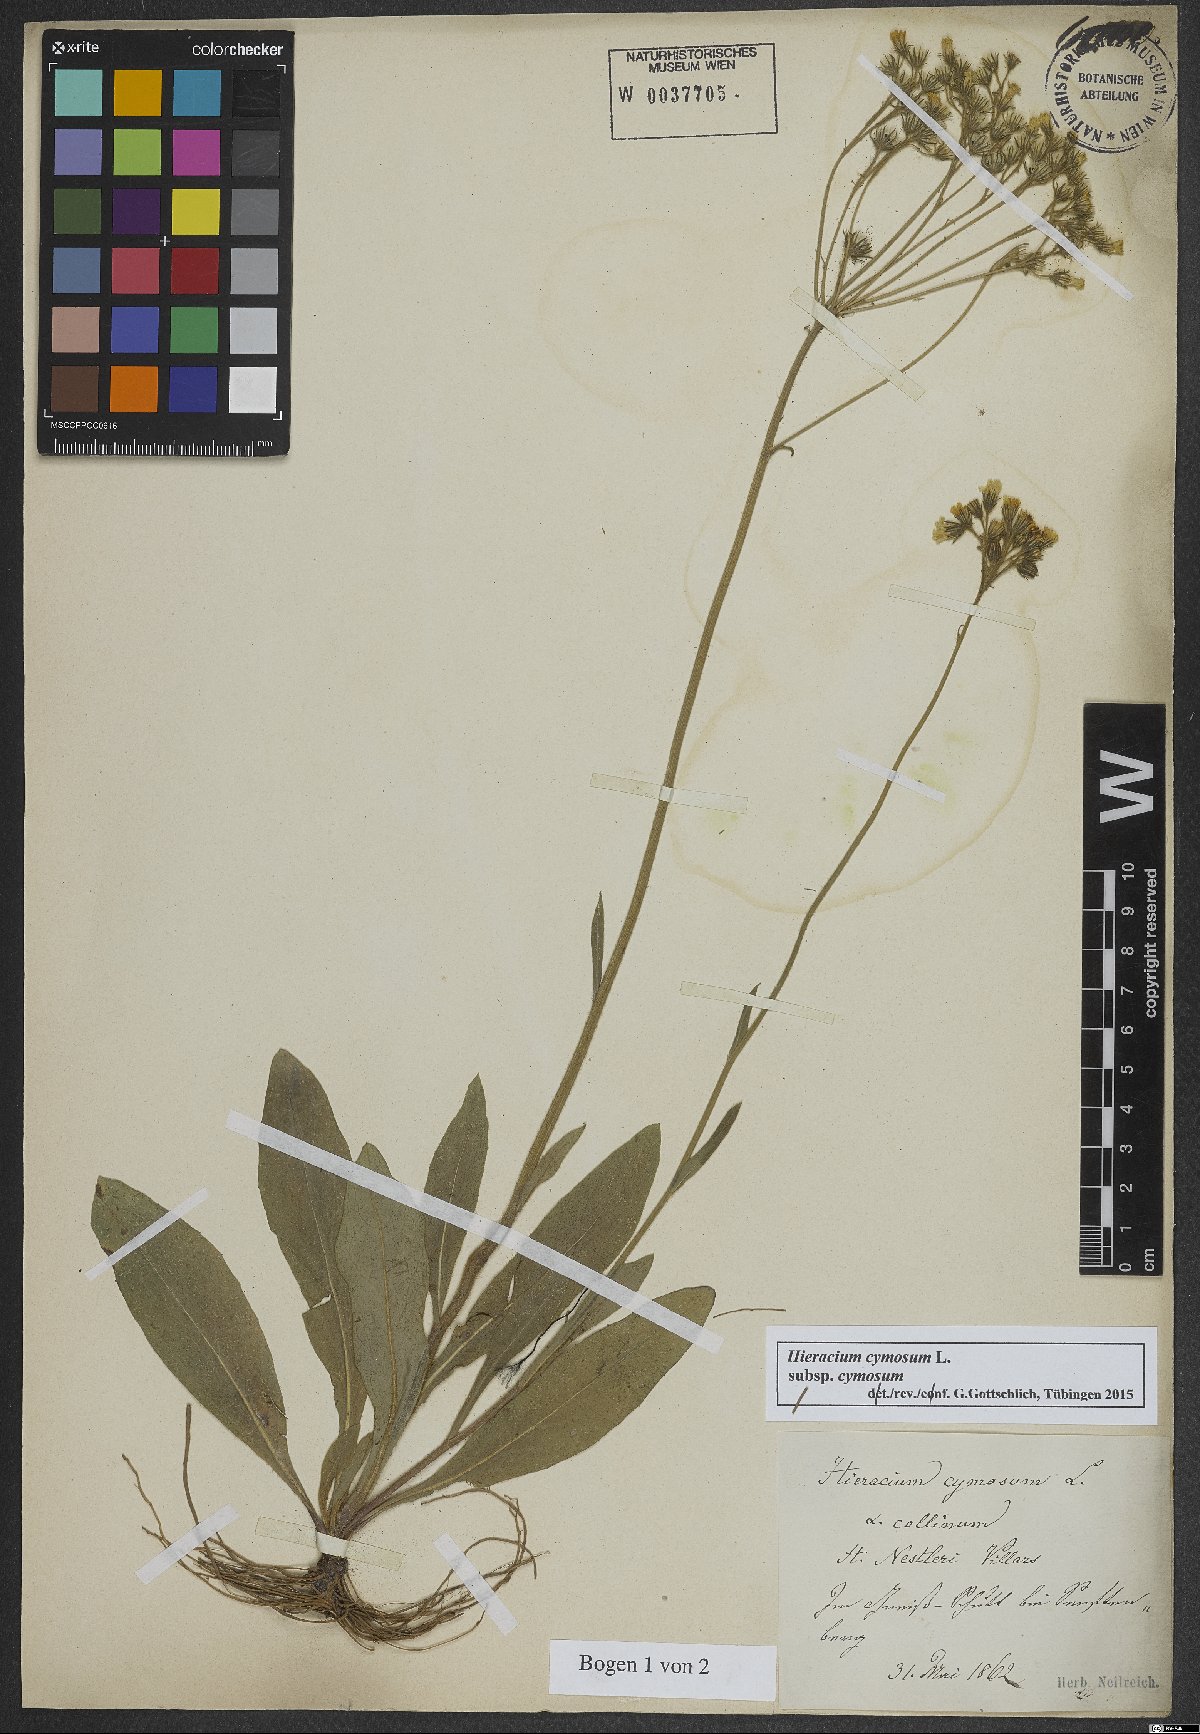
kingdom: Plantae
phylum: Tracheophyta
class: Magnoliopsida
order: Asterales
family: Asteraceae
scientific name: Asteraceae
